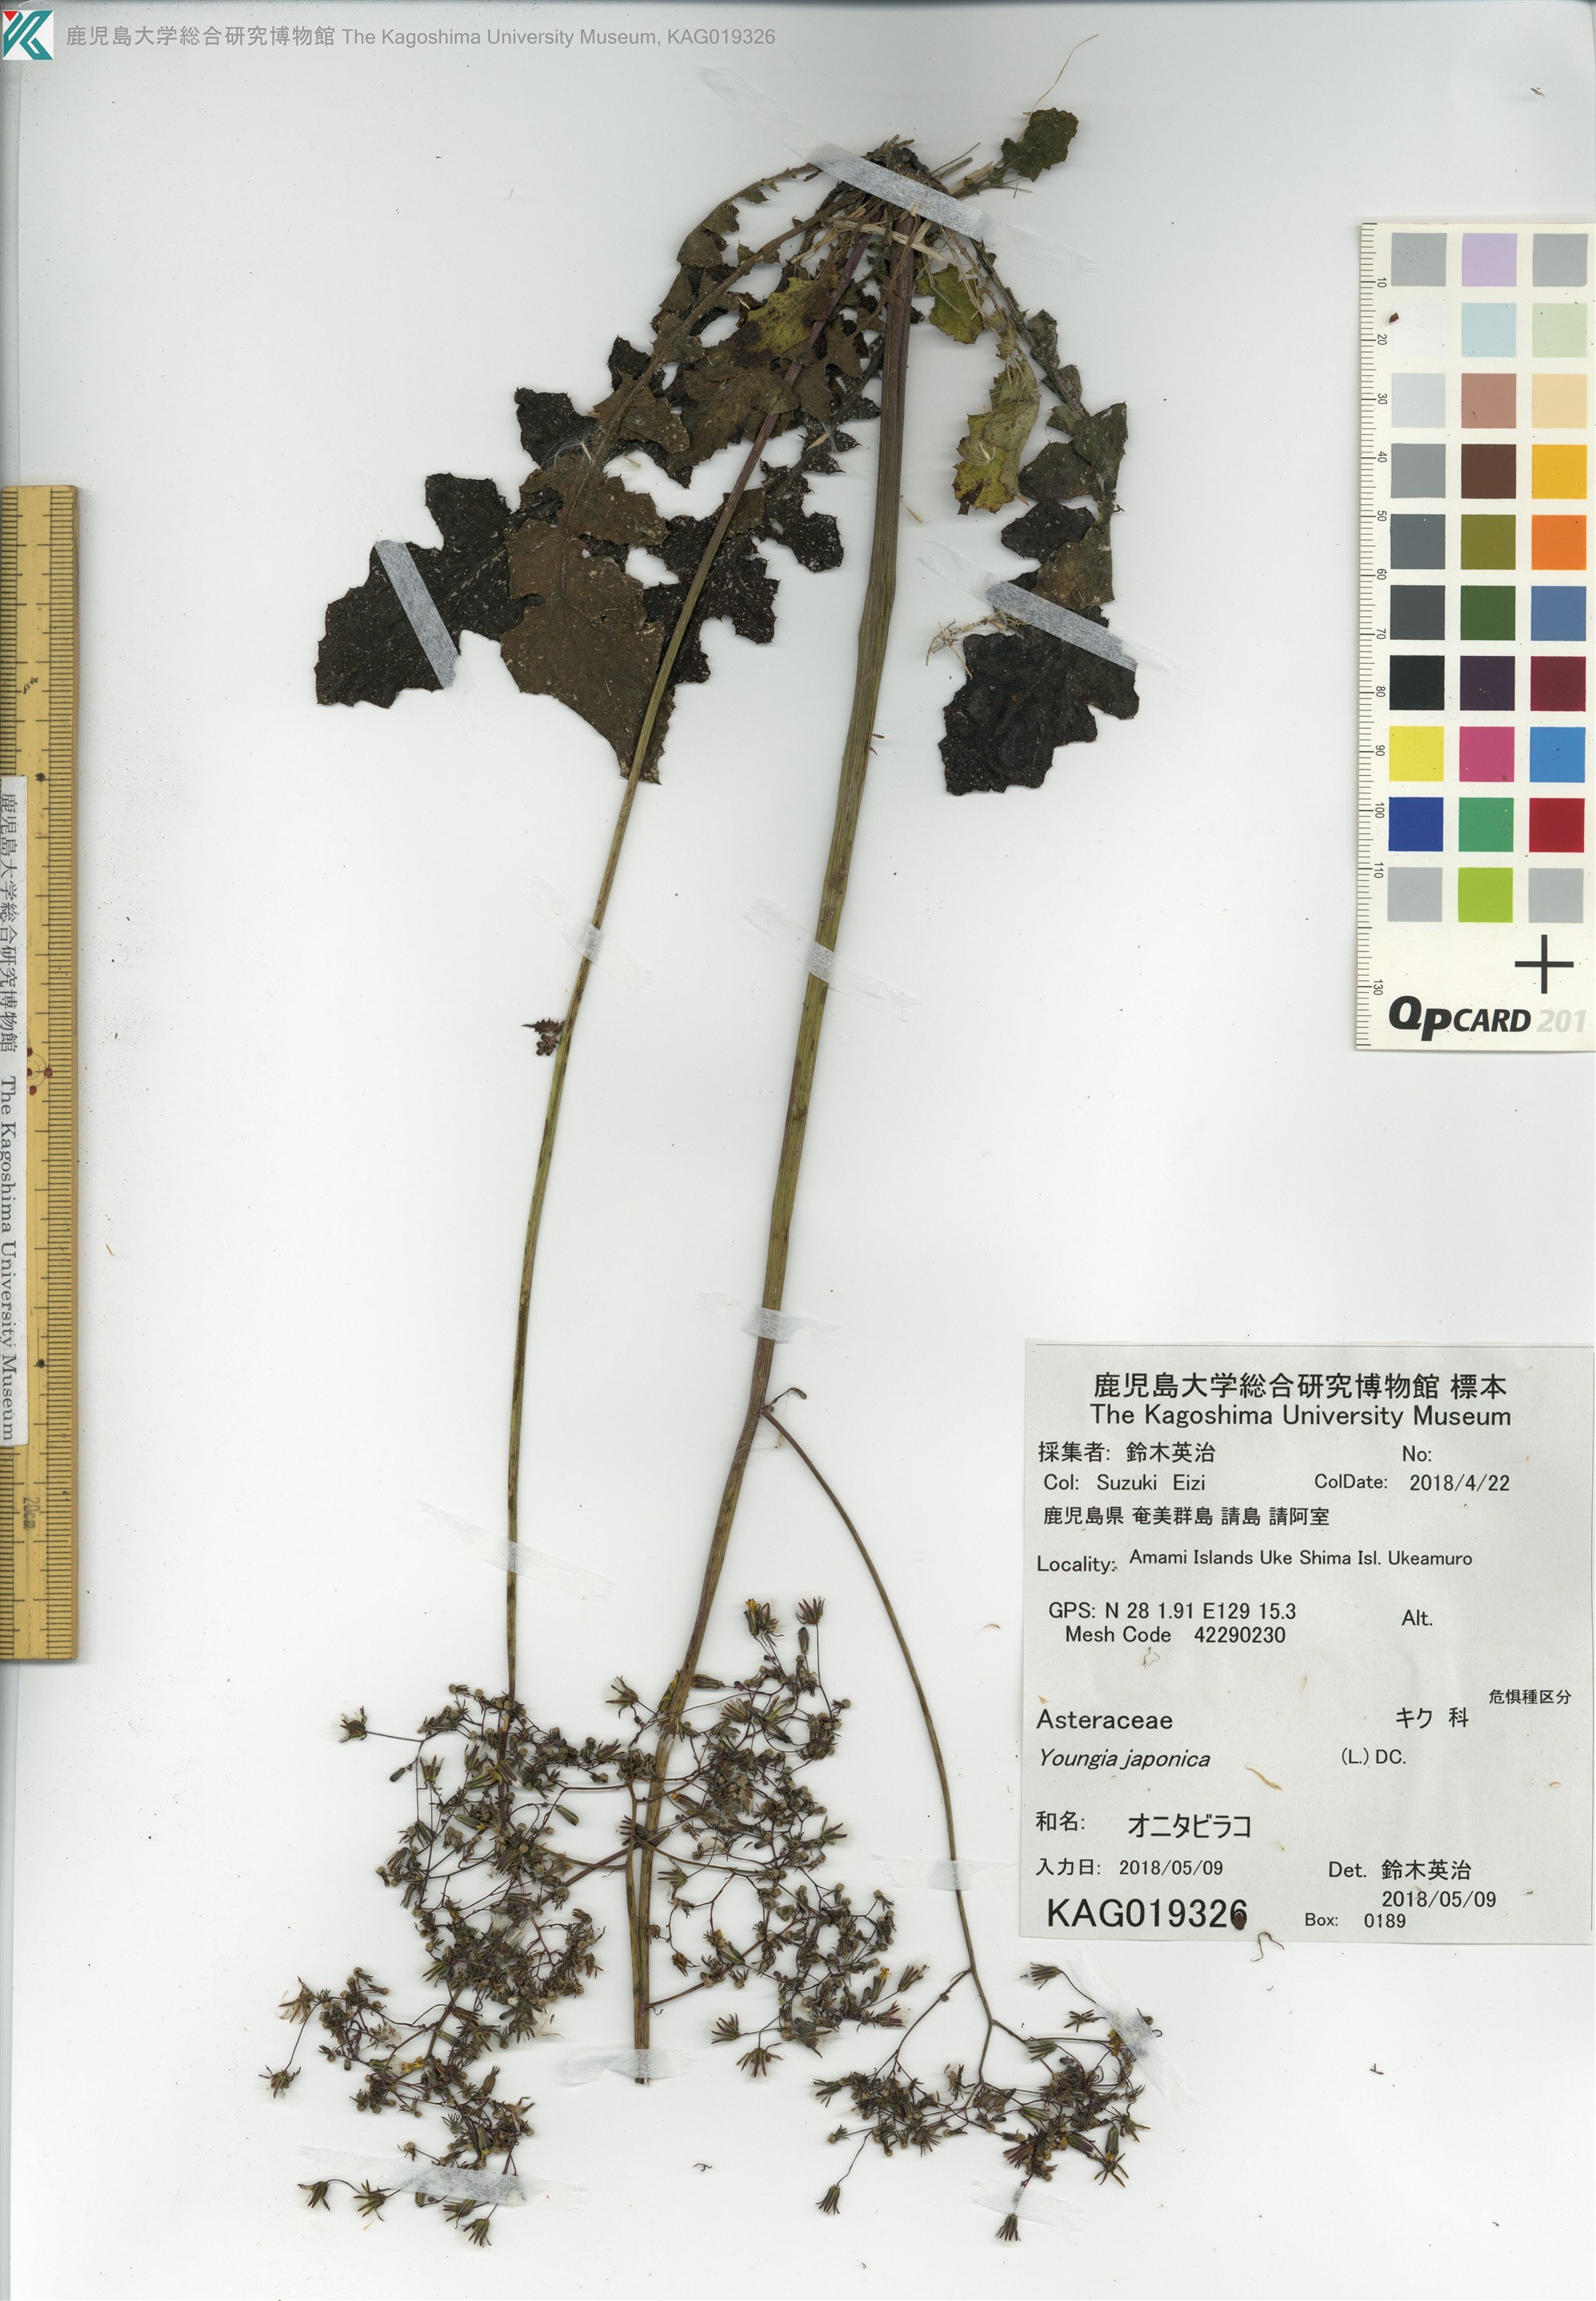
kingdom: Plantae
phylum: Tracheophyta
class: Magnoliopsida
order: Asterales
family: Asteraceae
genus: Youngia
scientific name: Youngia japonica
